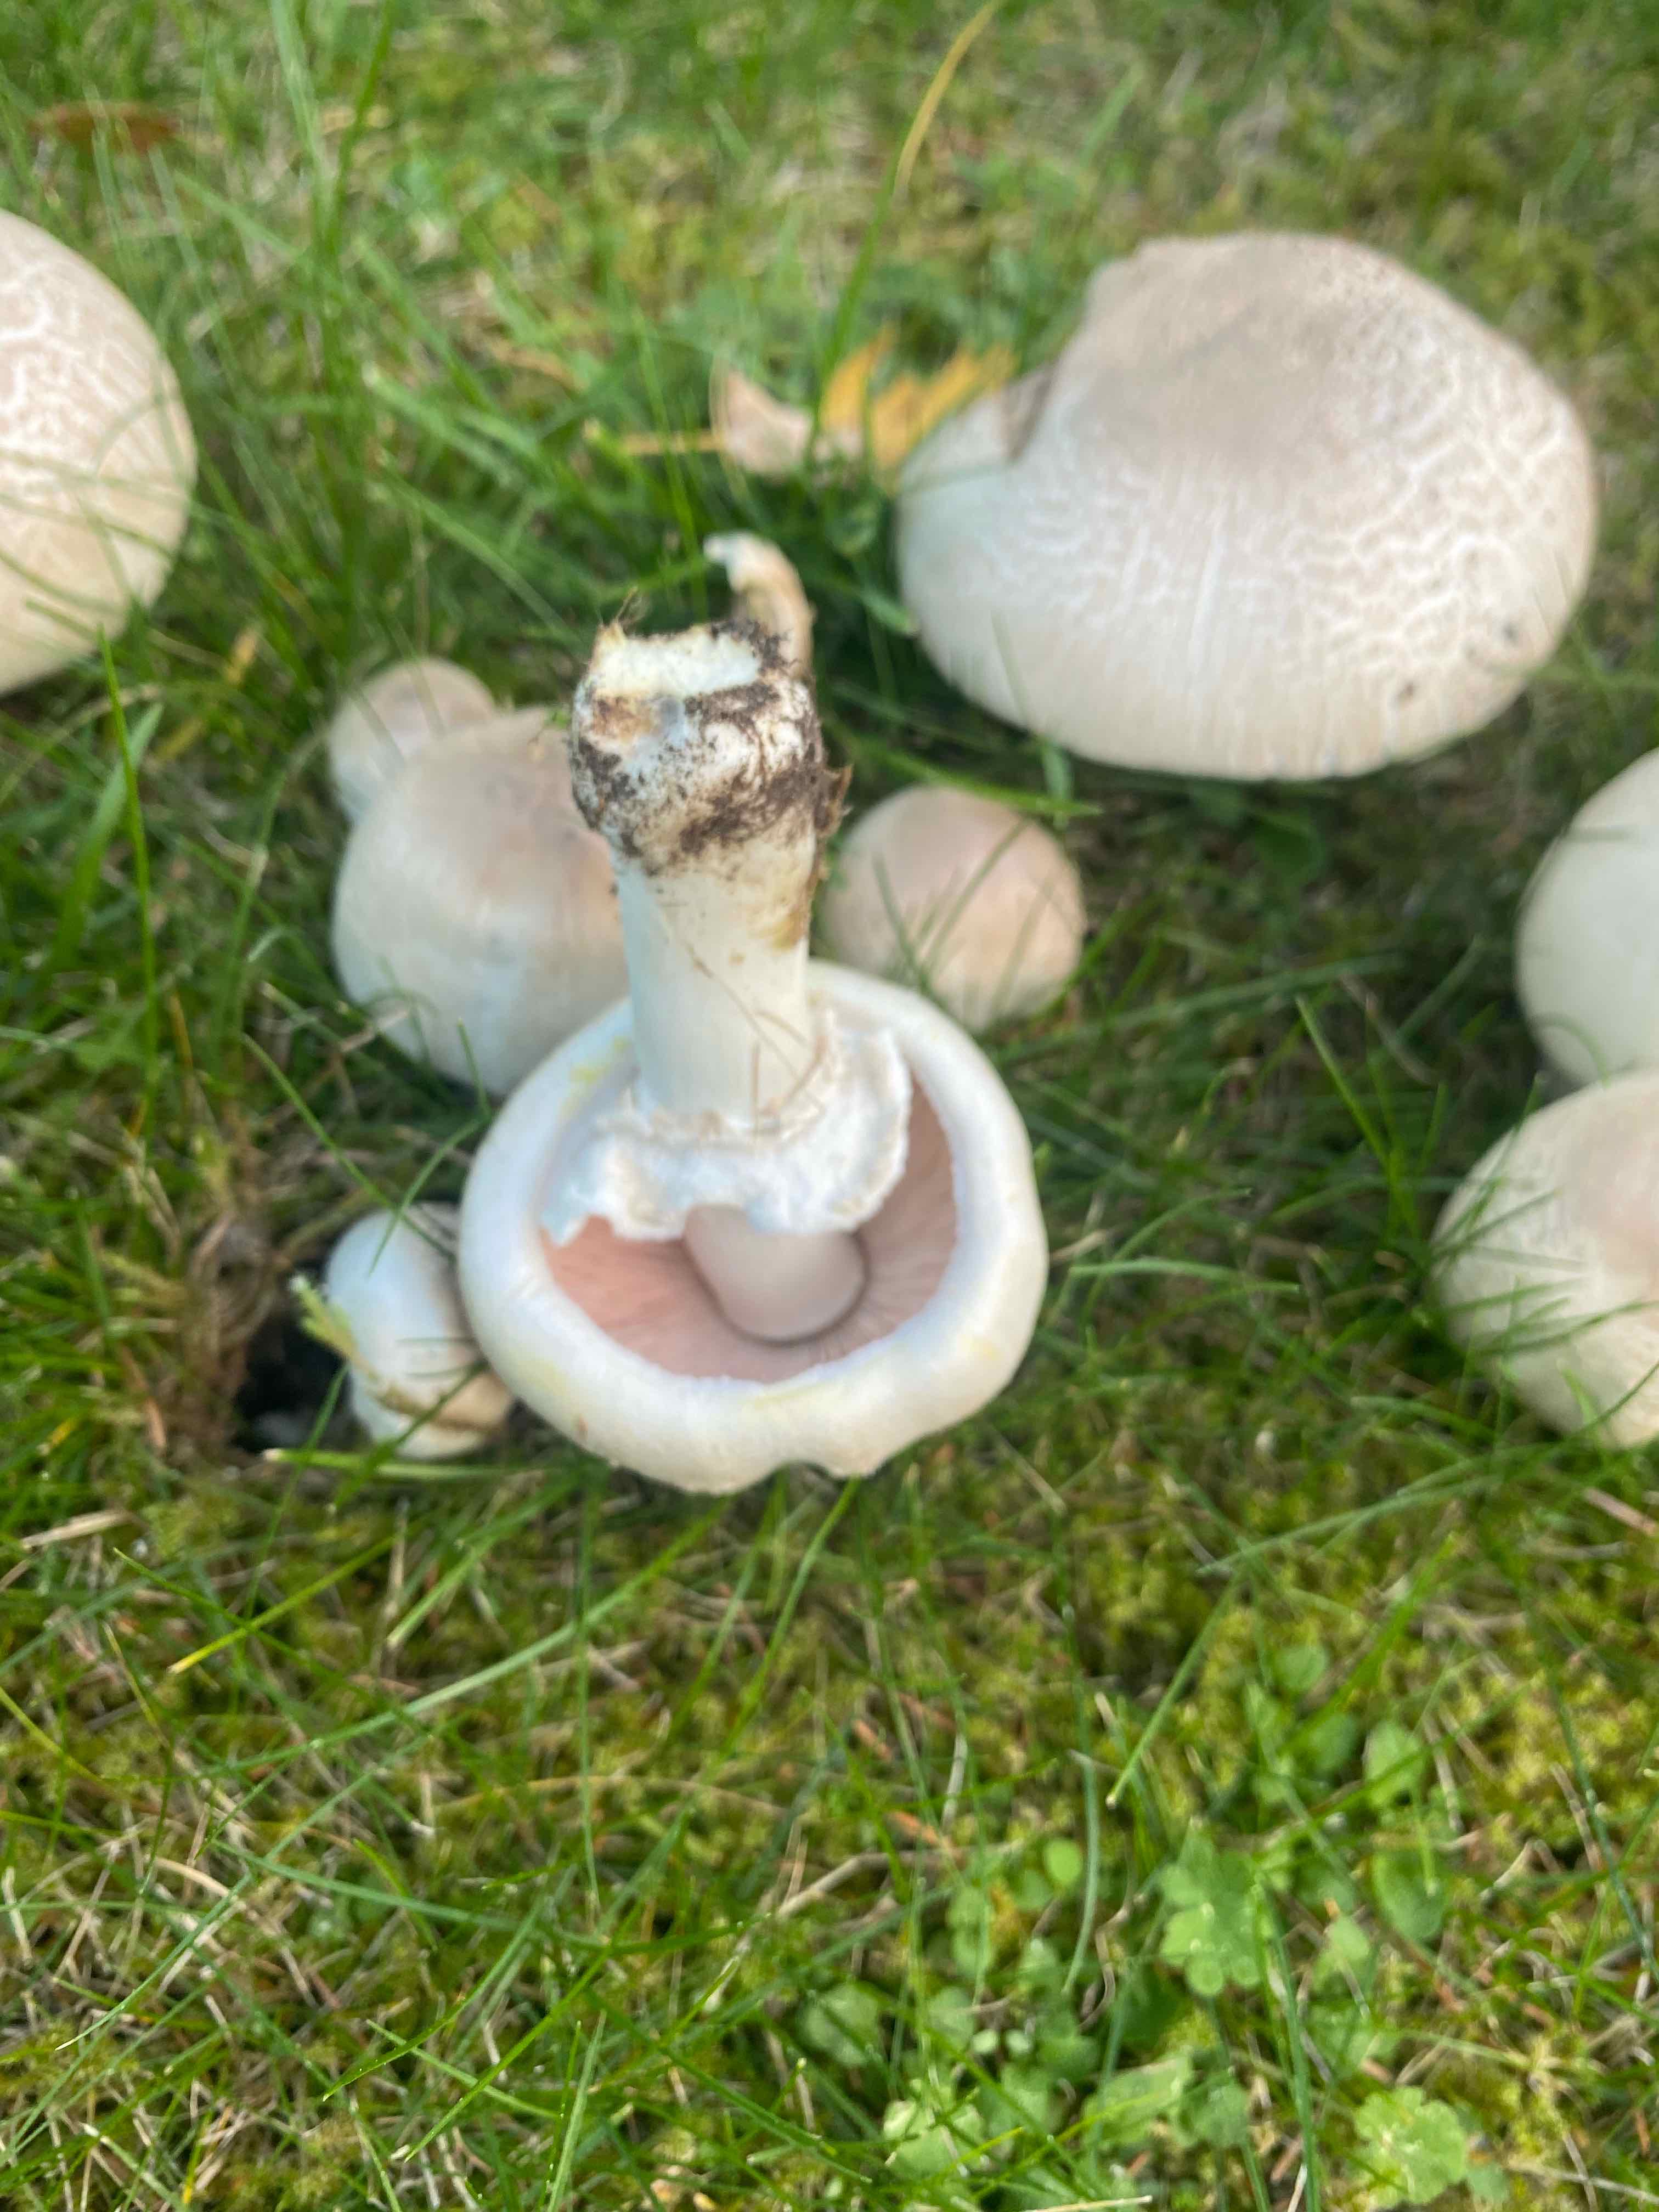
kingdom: Fungi
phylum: Basidiomycota
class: Agaricomycetes
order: Agaricales
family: Agaricaceae
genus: Agaricus
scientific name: Agaricus xanthodermus
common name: karbol-champignon
